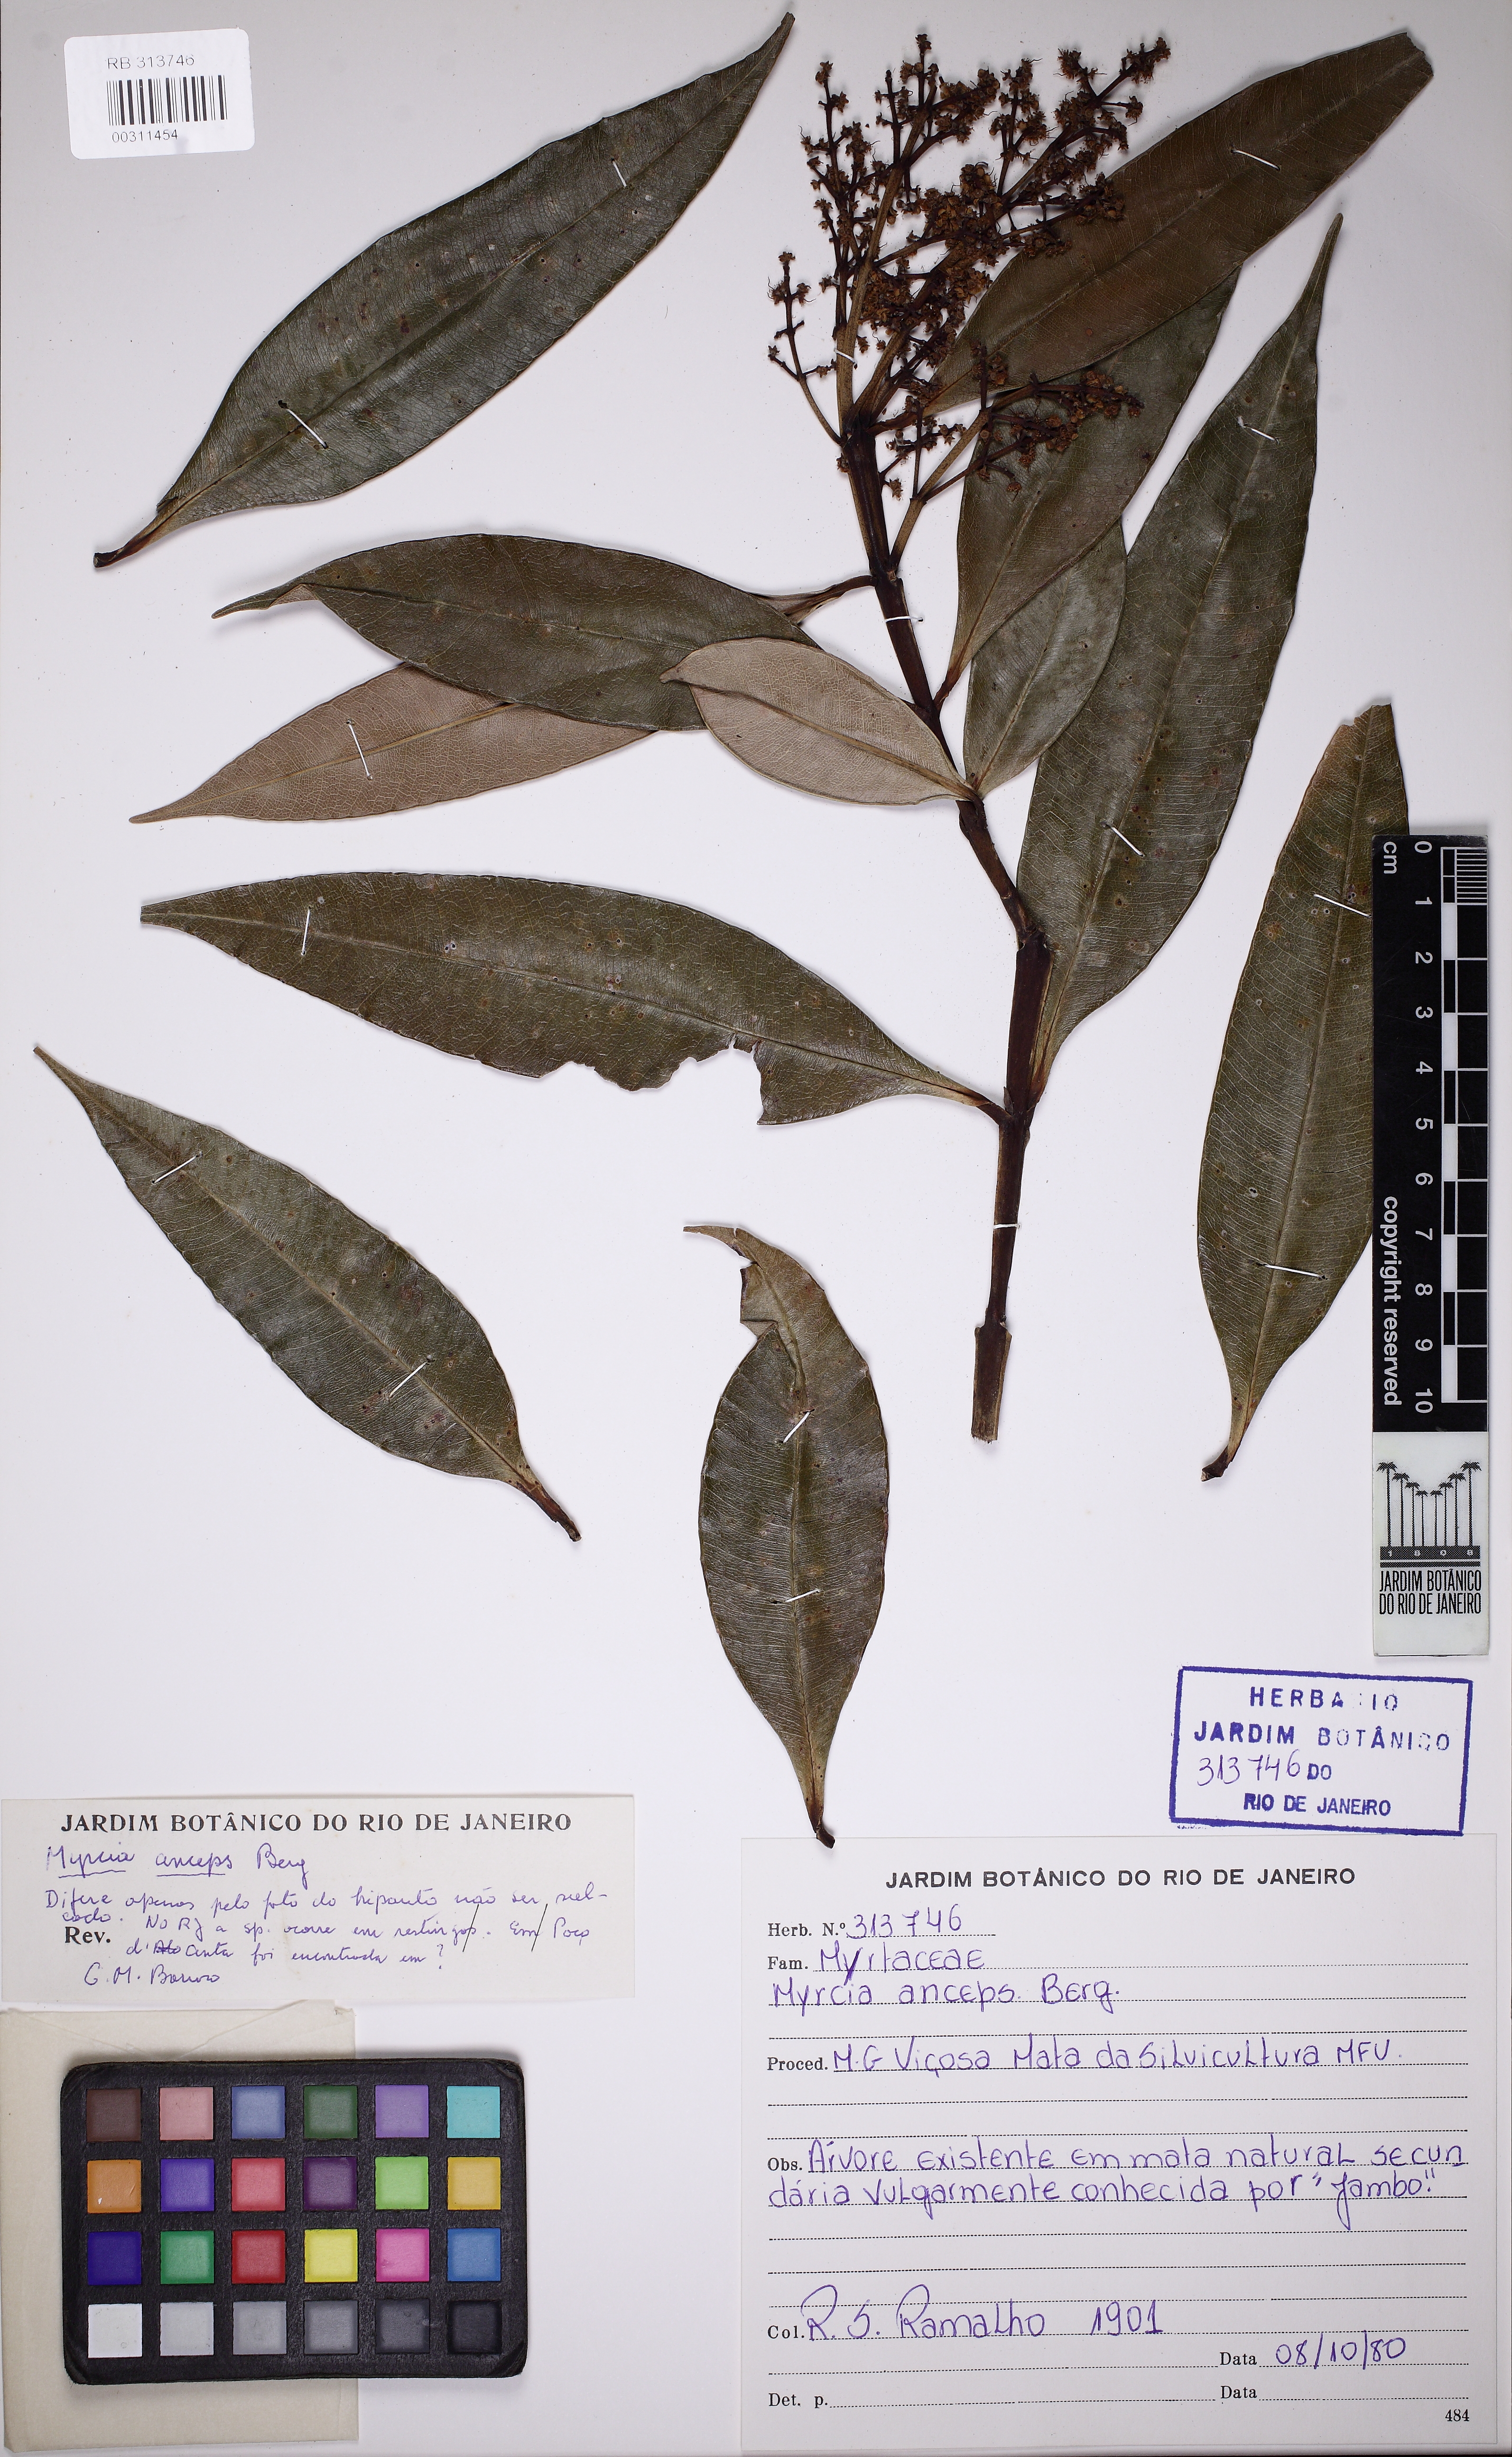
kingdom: Plantae
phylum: Tracheophyta
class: Magnoliopsida
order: Myrtales
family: Myrtaceae
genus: Myrcia
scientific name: Myrcia anceps
